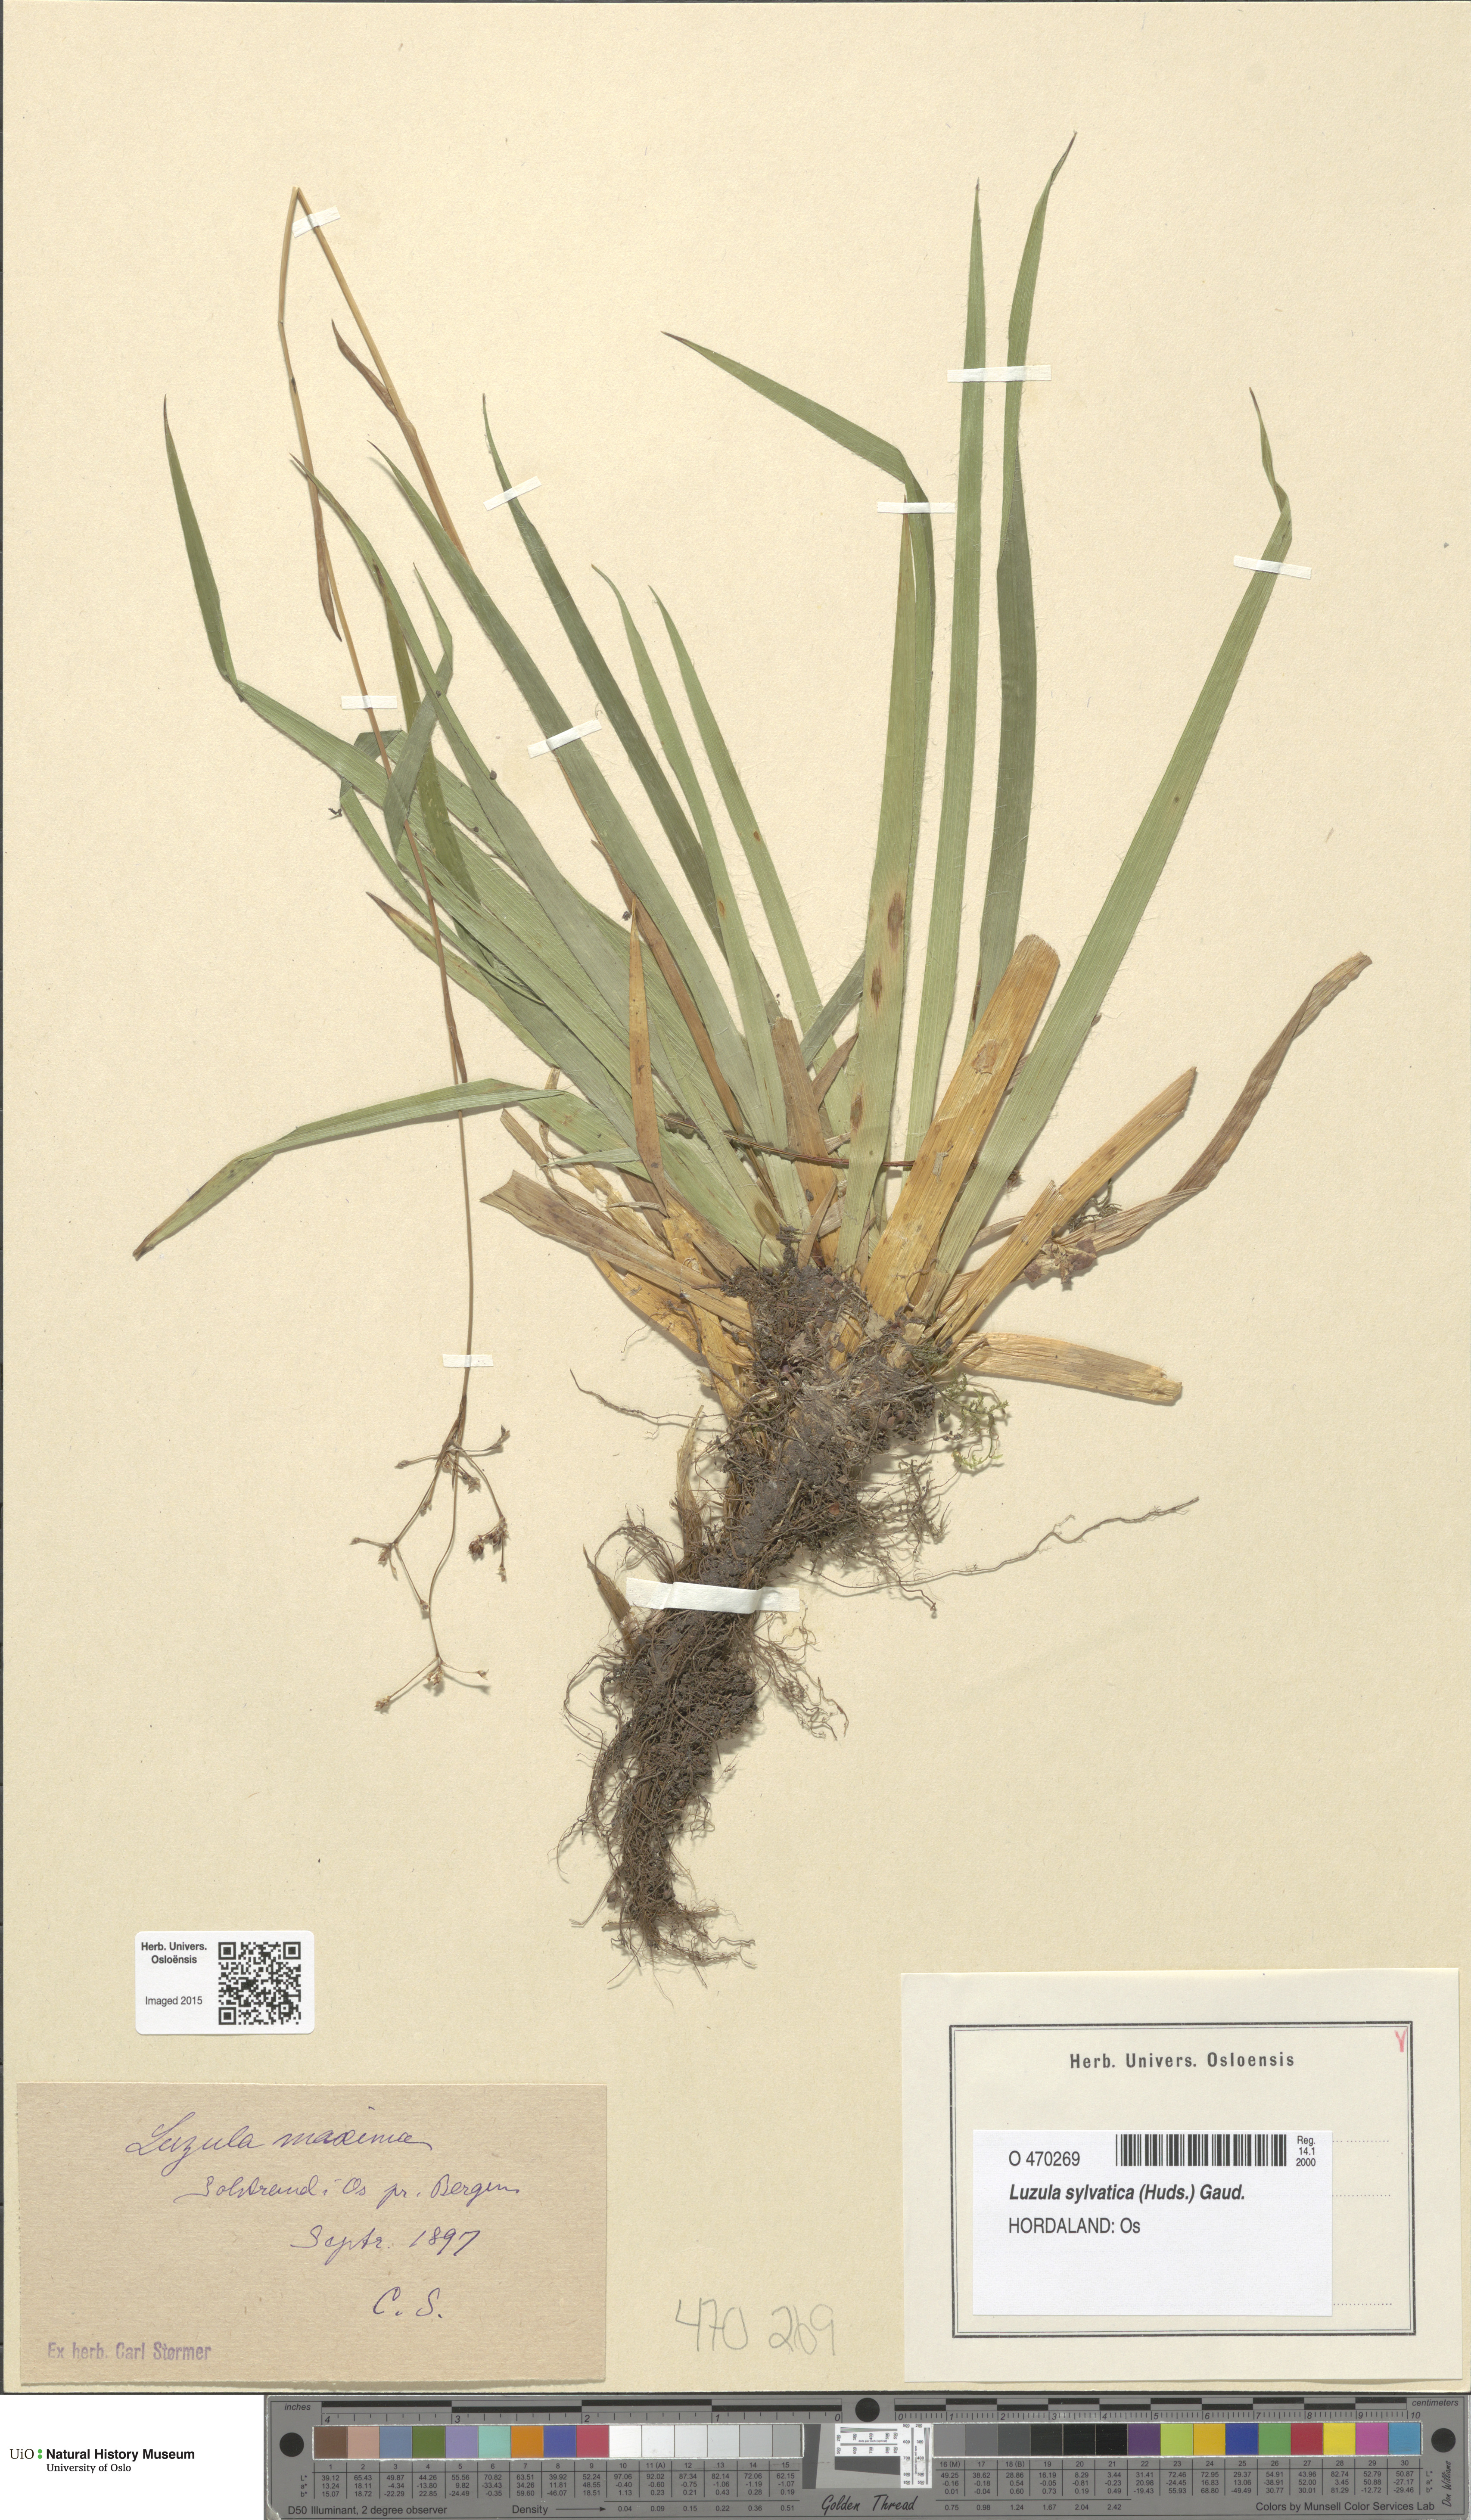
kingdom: Plantae
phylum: Tracheophyta
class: Liliopsida
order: Poales
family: Juncaceae
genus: Luzula
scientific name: Luzula sylvatica
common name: Great wood-rush
